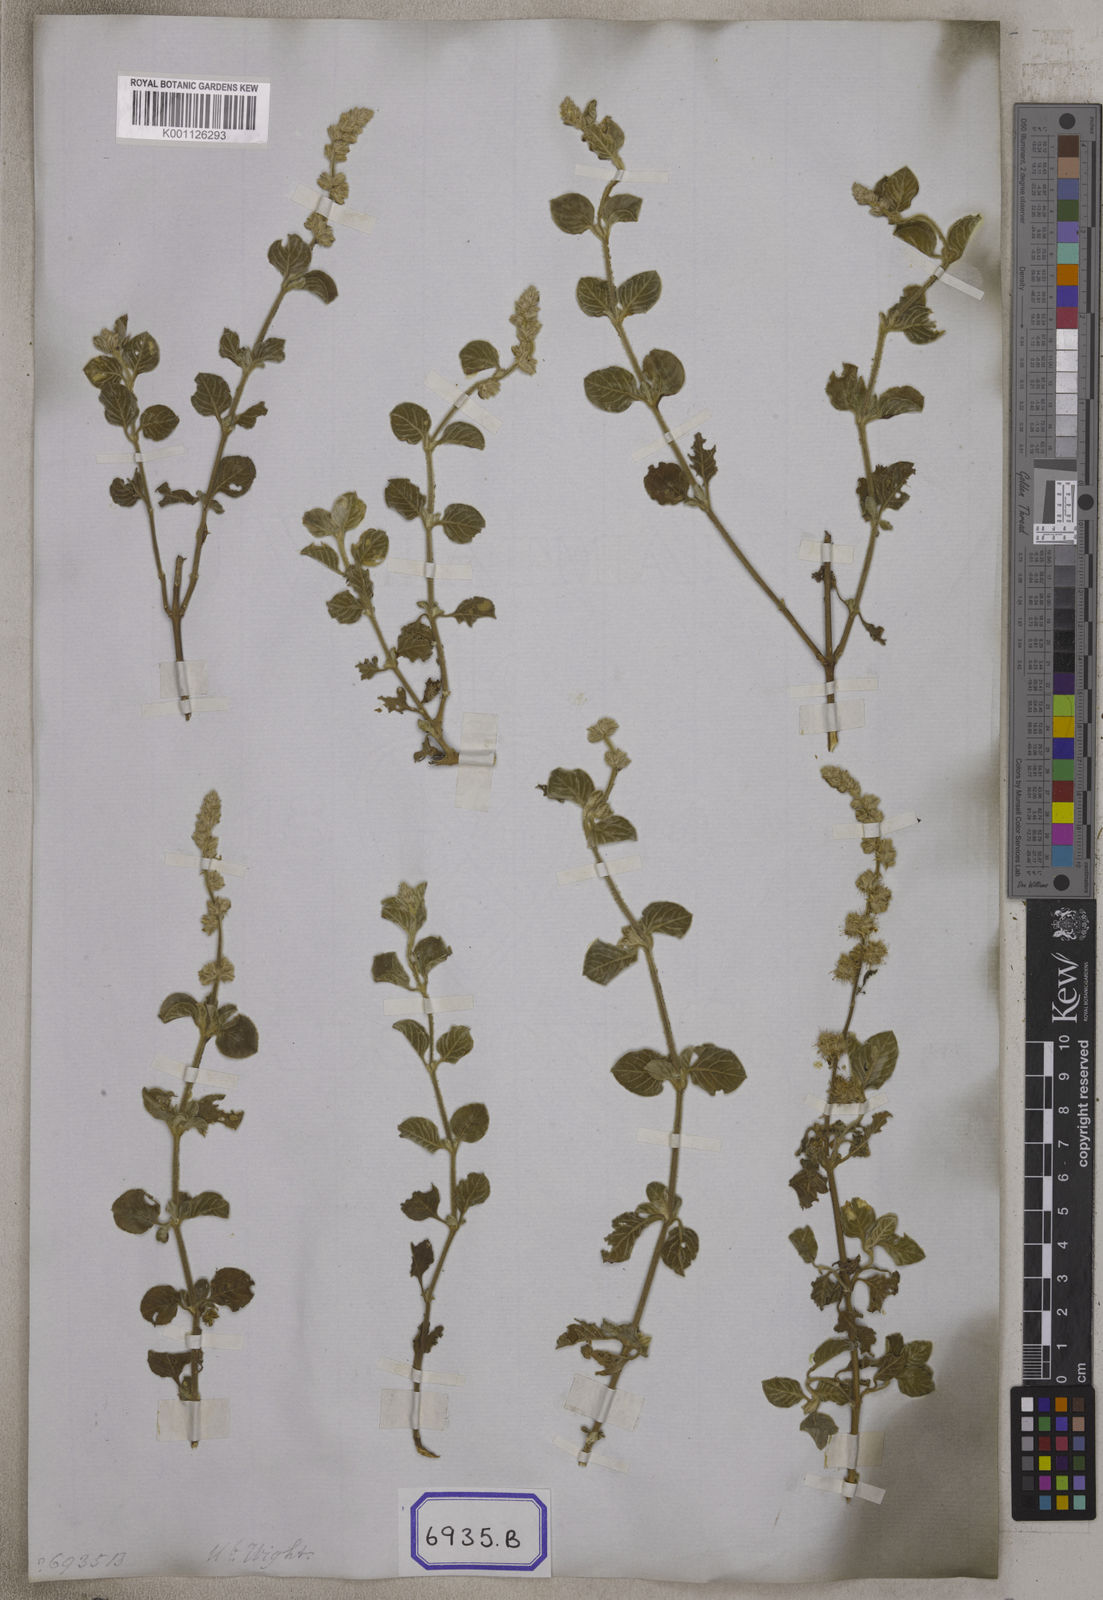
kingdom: Plantae
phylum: Tracheophyta
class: Magnoliopsida
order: Caryophyllales
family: Amaranthaceae
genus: Pupalia
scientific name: Pupalia
